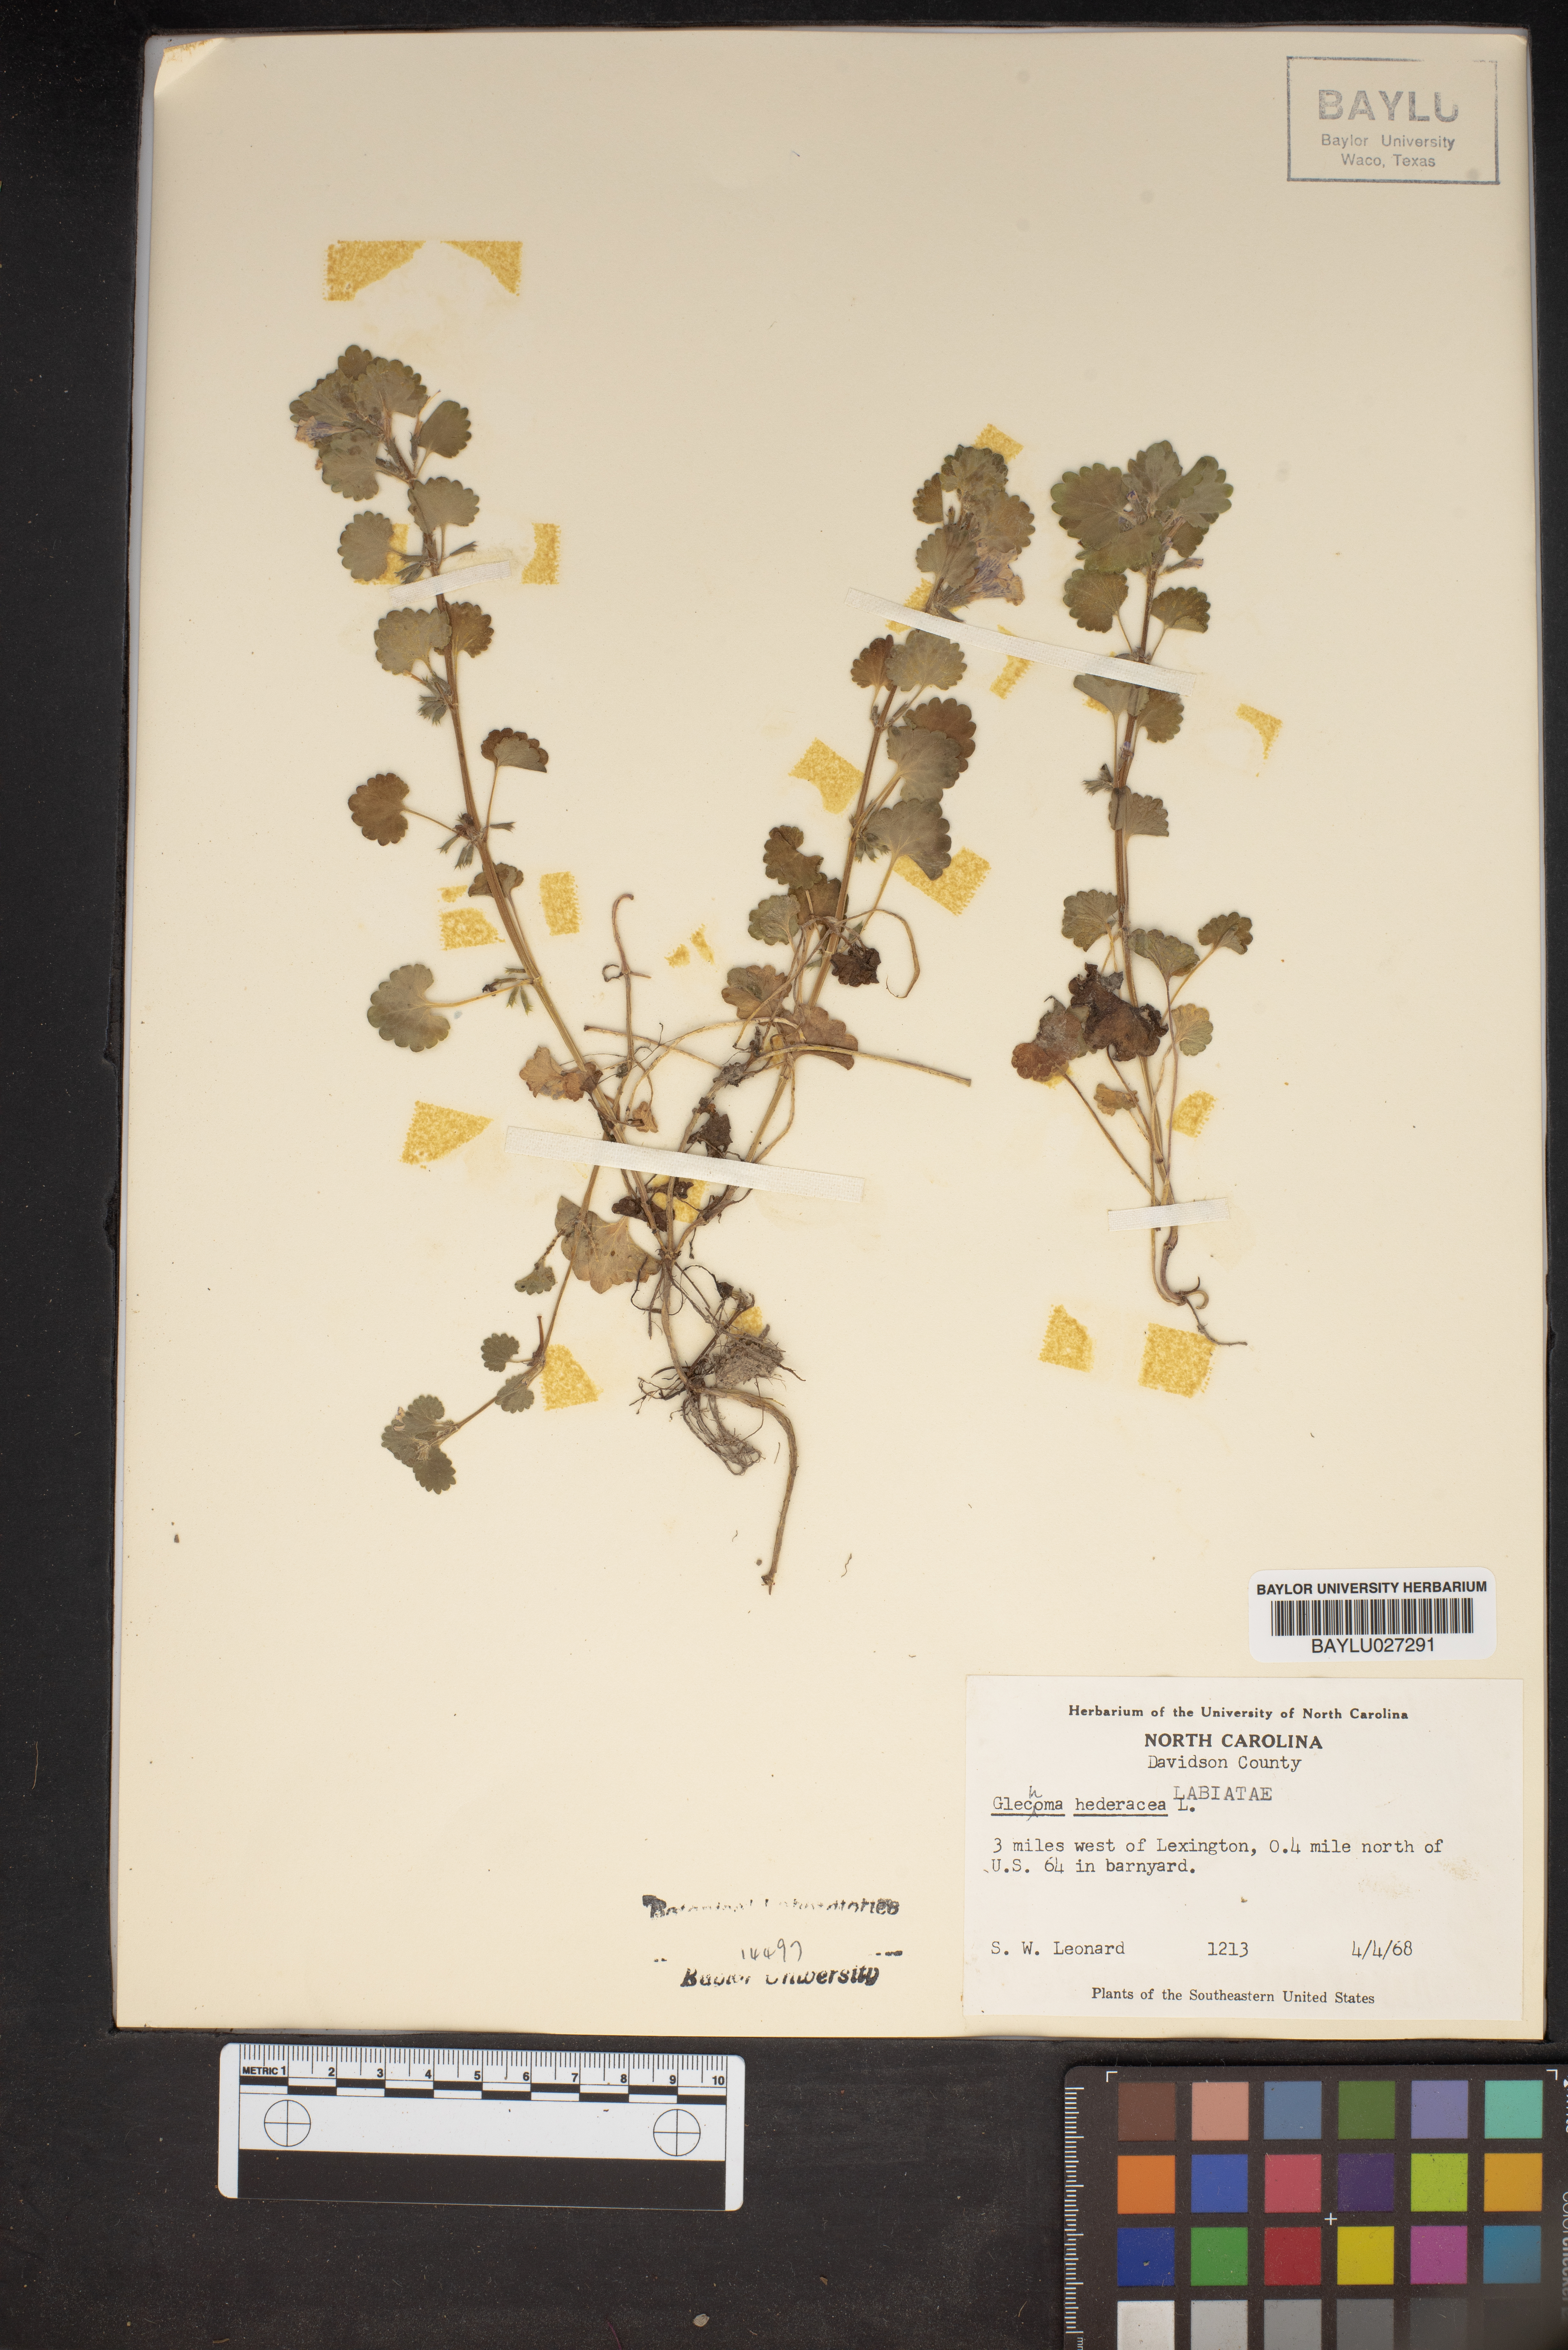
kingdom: Plantae
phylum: Tracheophyta
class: Magnoliopsida
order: Lamiales
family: Lamiaceae
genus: Glechoma
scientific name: Glechoma hederacea
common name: Ground ivy
